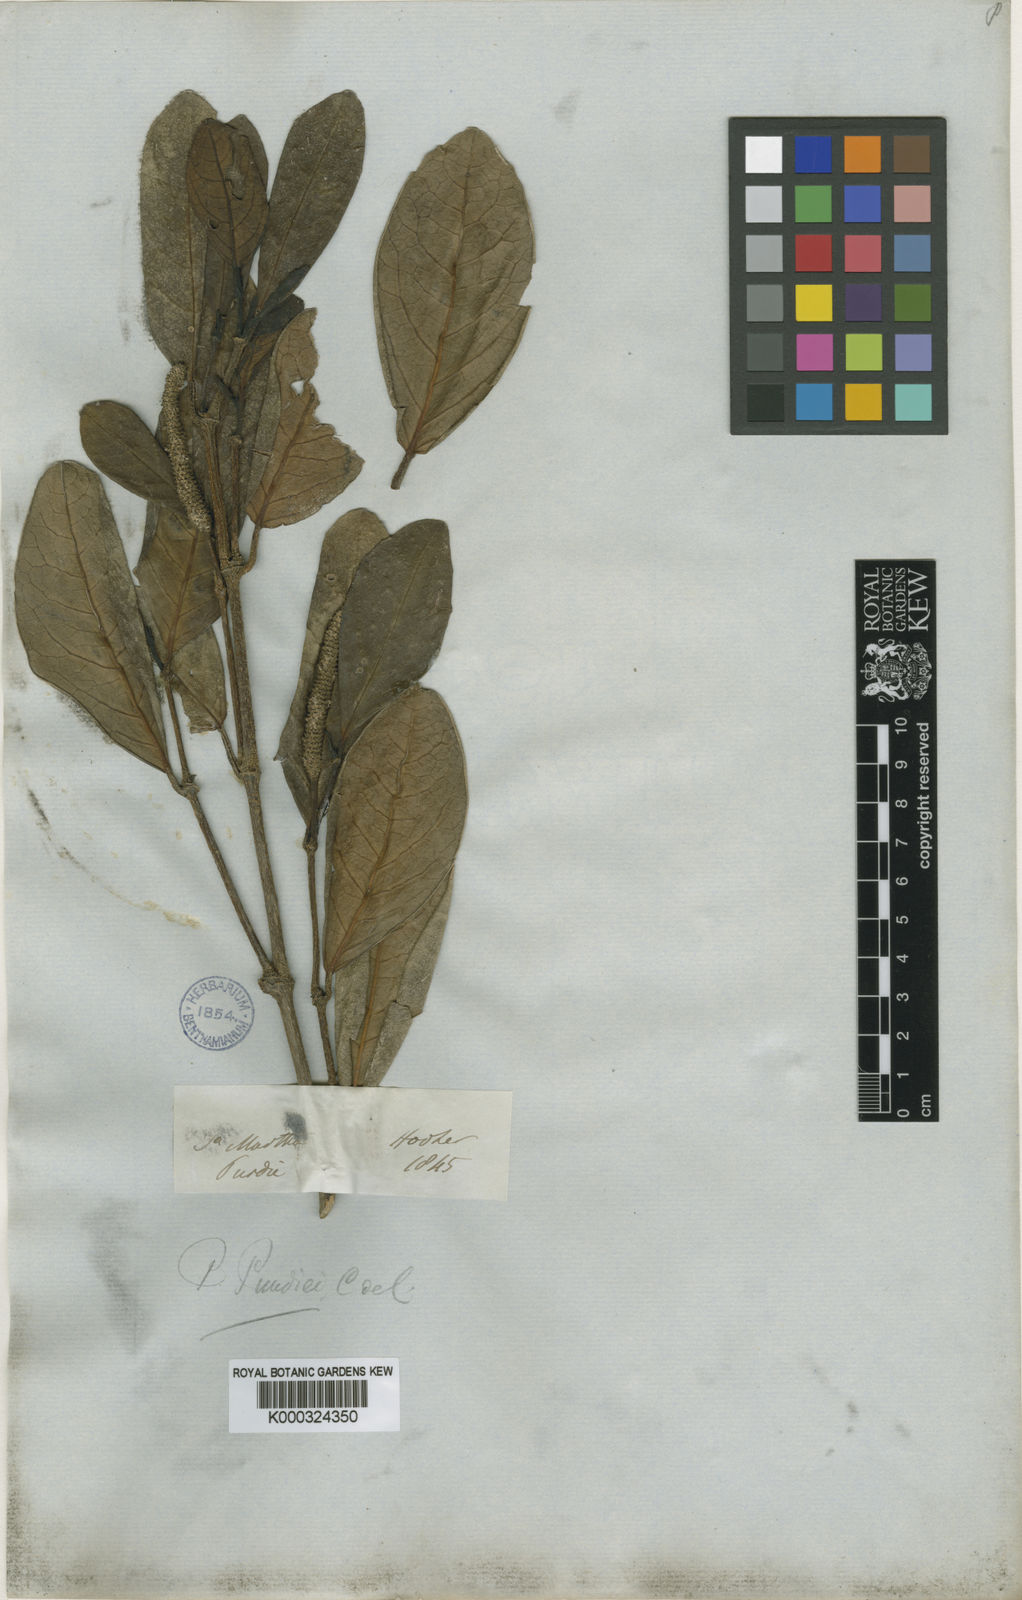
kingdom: Plantae
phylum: Tracheophyta
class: Magnoliopsida
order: Piperales
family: Piperaceae
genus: Piper
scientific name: Piper purdiei
